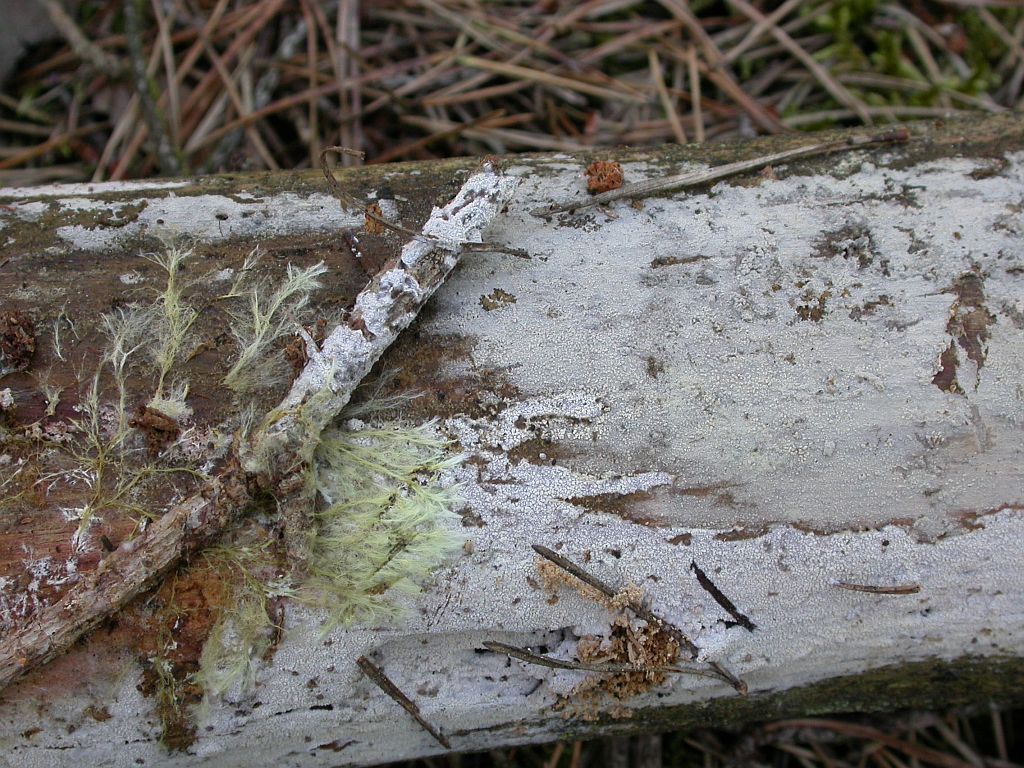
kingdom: Fungi
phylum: Basidiomycota
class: Agaricomycetes
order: Hymenochaetales
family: Hyphodontiaceae
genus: Hyphodontia
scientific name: Hyphodontia alutaria
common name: flaskerenser-nålehinde
